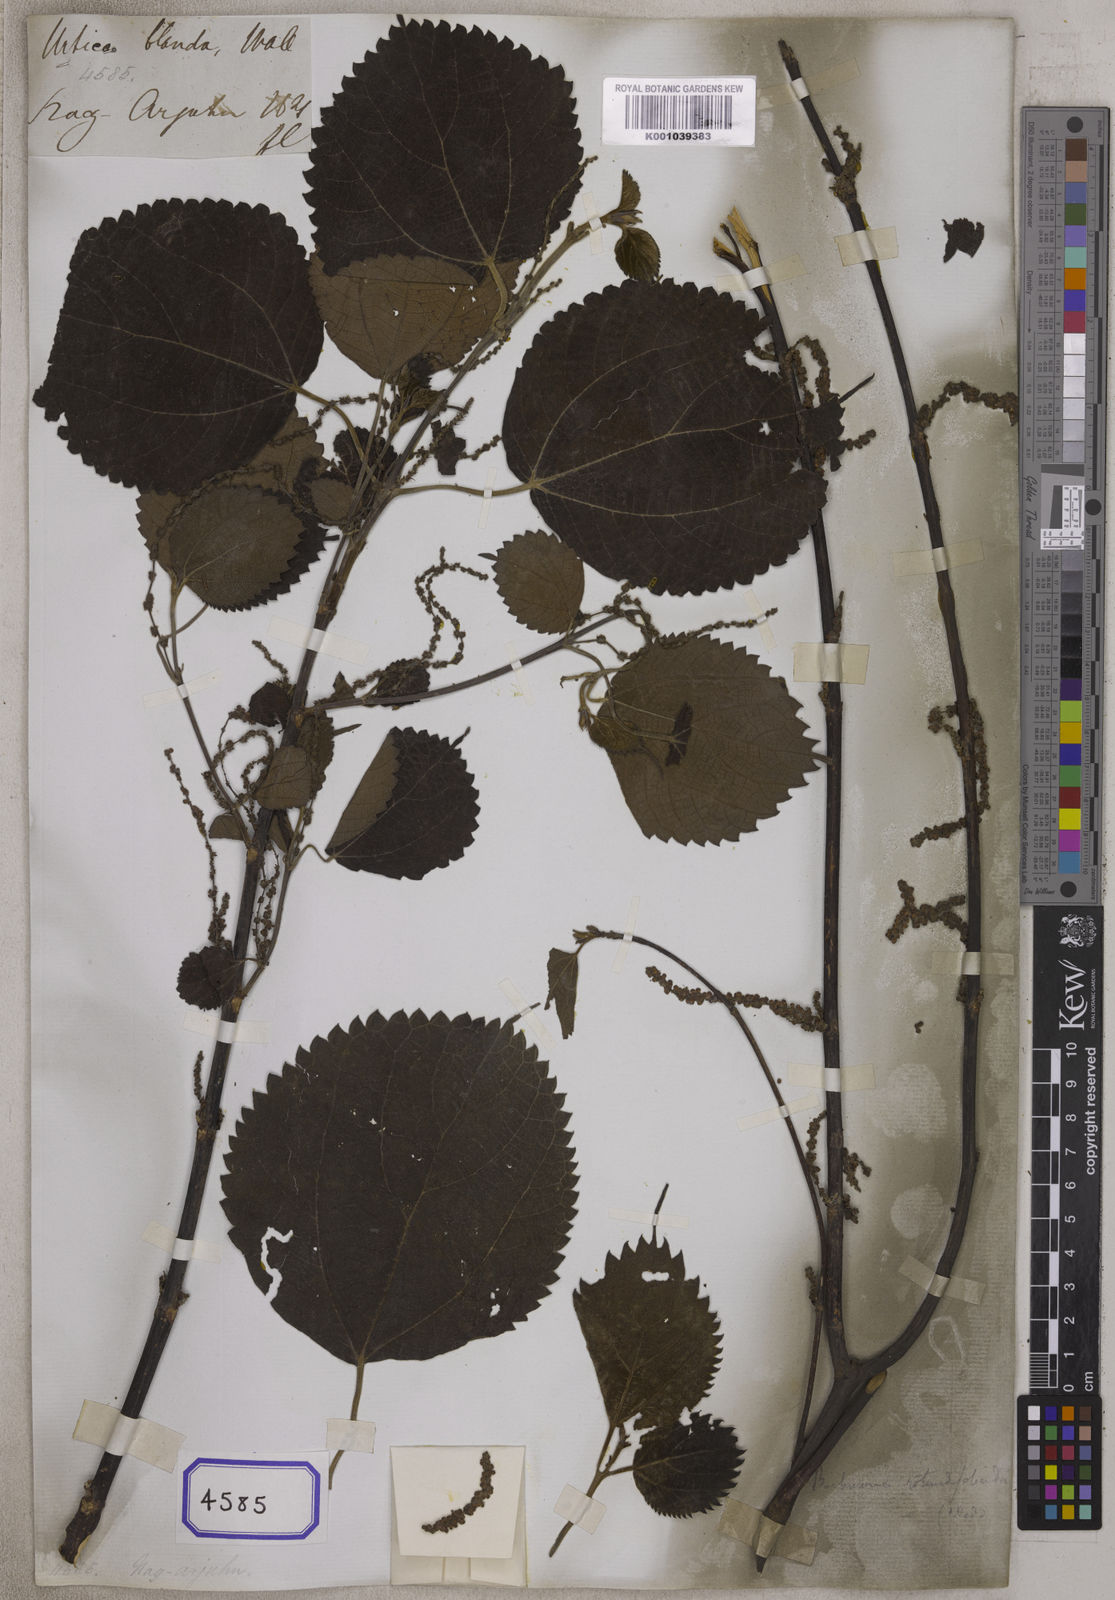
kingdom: Plantae
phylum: Tracheophyta
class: Magnoliopsida
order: Rosales
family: Urticaceae
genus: Boehmeria
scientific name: Boehmeria ternifolia
